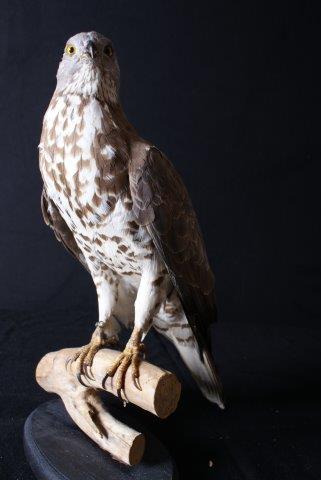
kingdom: Animalia
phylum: Chordata
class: Aves
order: Accipitriformes
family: Accipitridae
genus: Pernis
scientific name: Pernis apivorus
